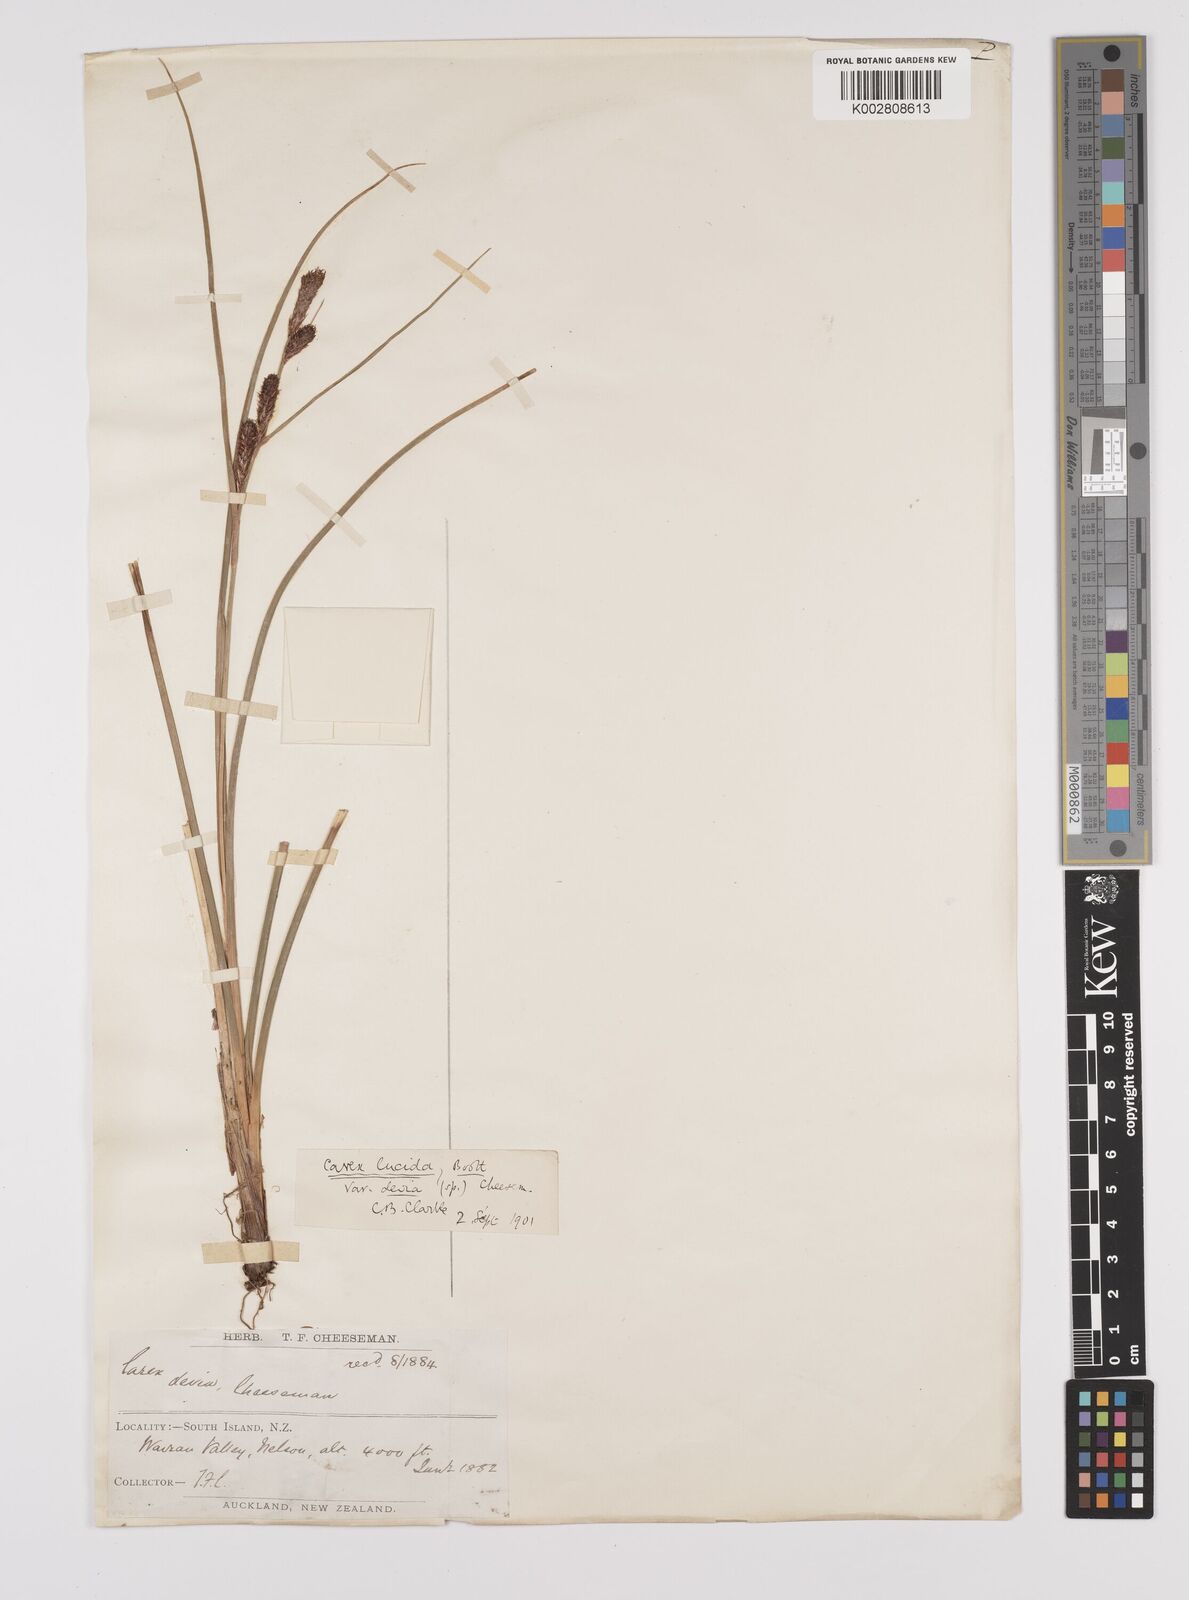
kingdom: Plantae
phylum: Tracheophyta
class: Liliopsida
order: Poales
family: Cyperaceae
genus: Carex
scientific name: Carex devia
